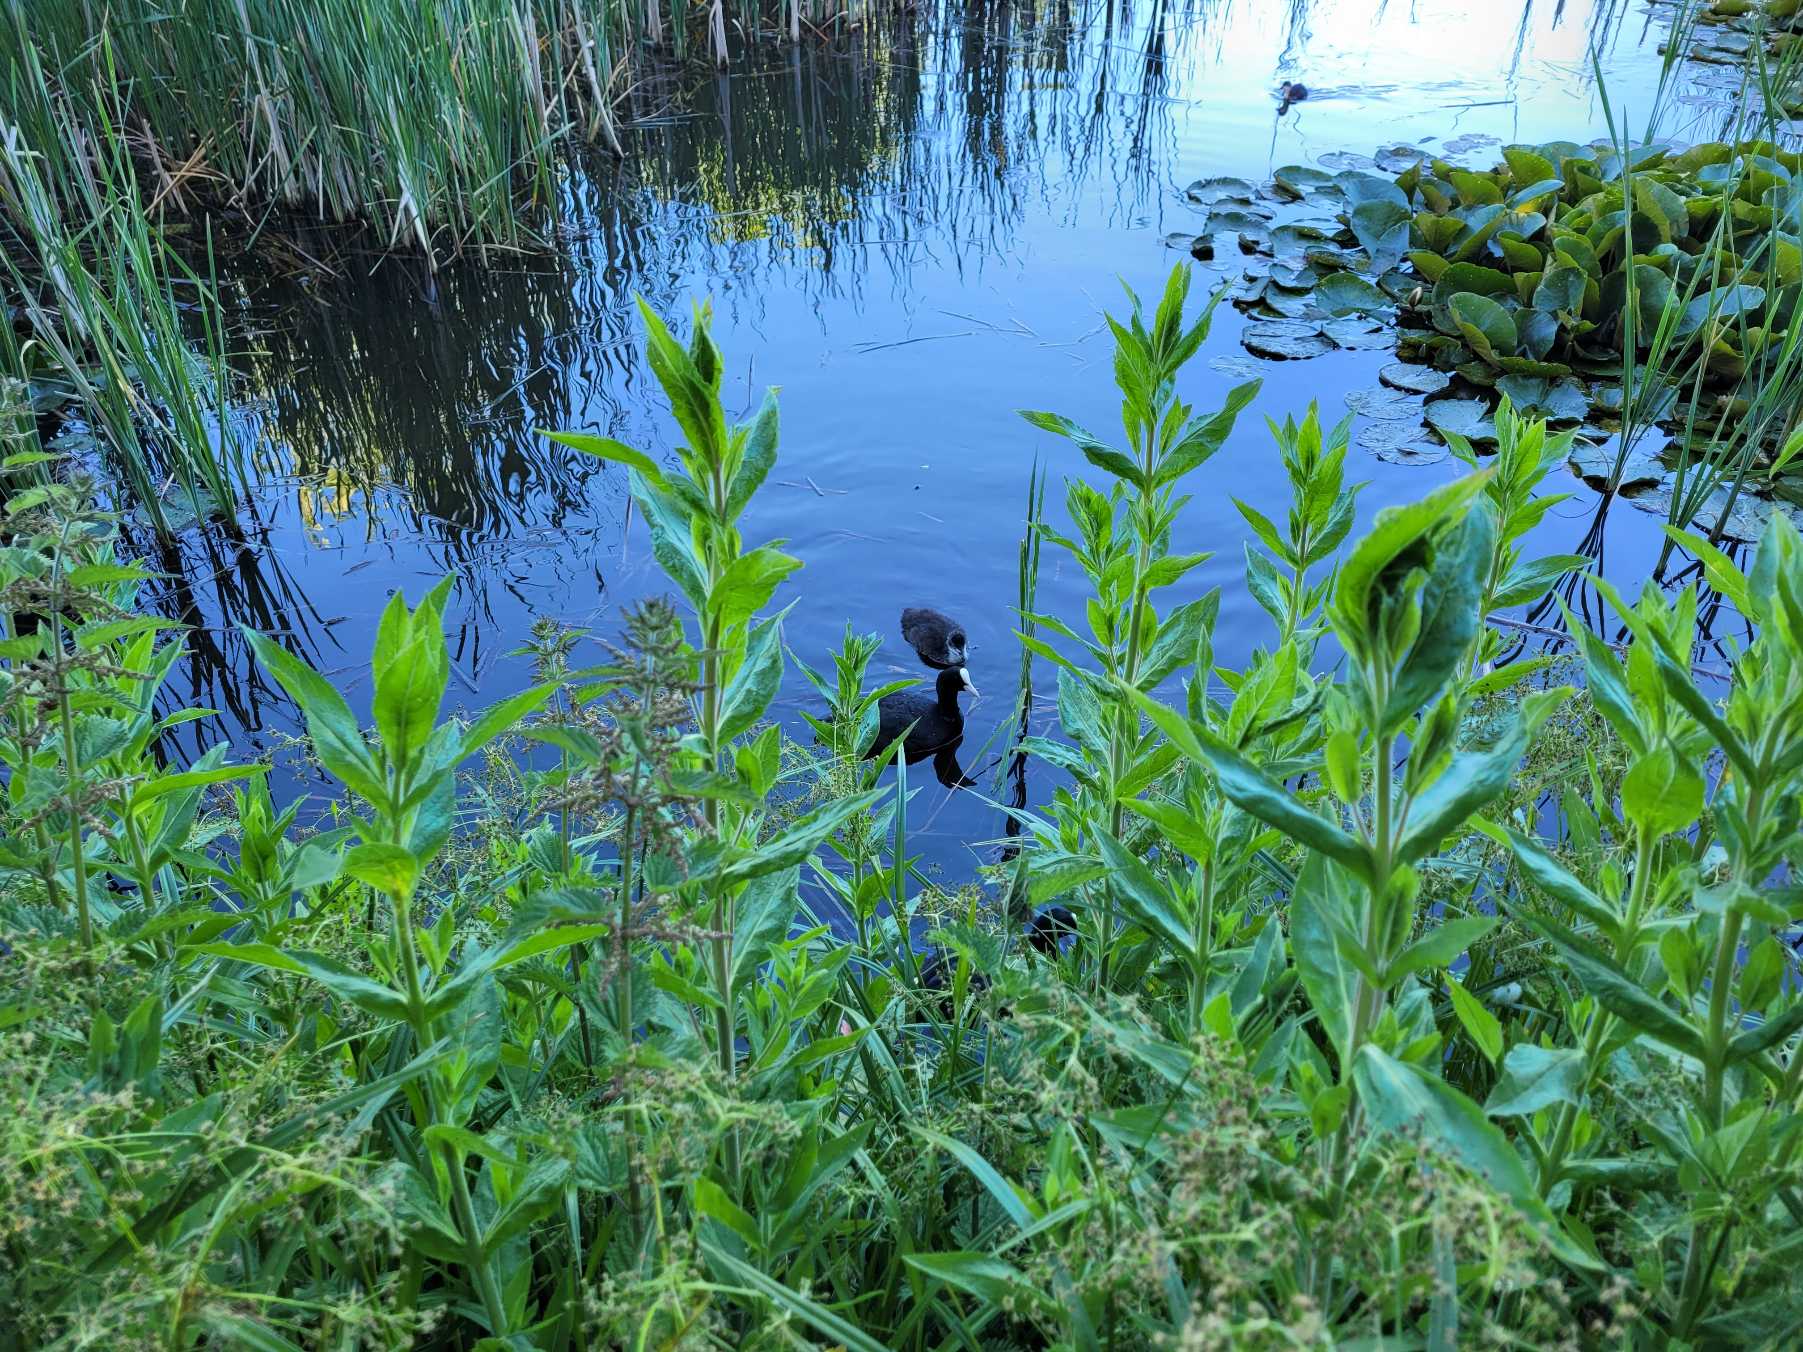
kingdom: Animalia
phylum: Chordata
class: Aves
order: Gruiformes
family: Rallidae
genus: Fulica
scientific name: Fulica atra
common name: Blishøne
